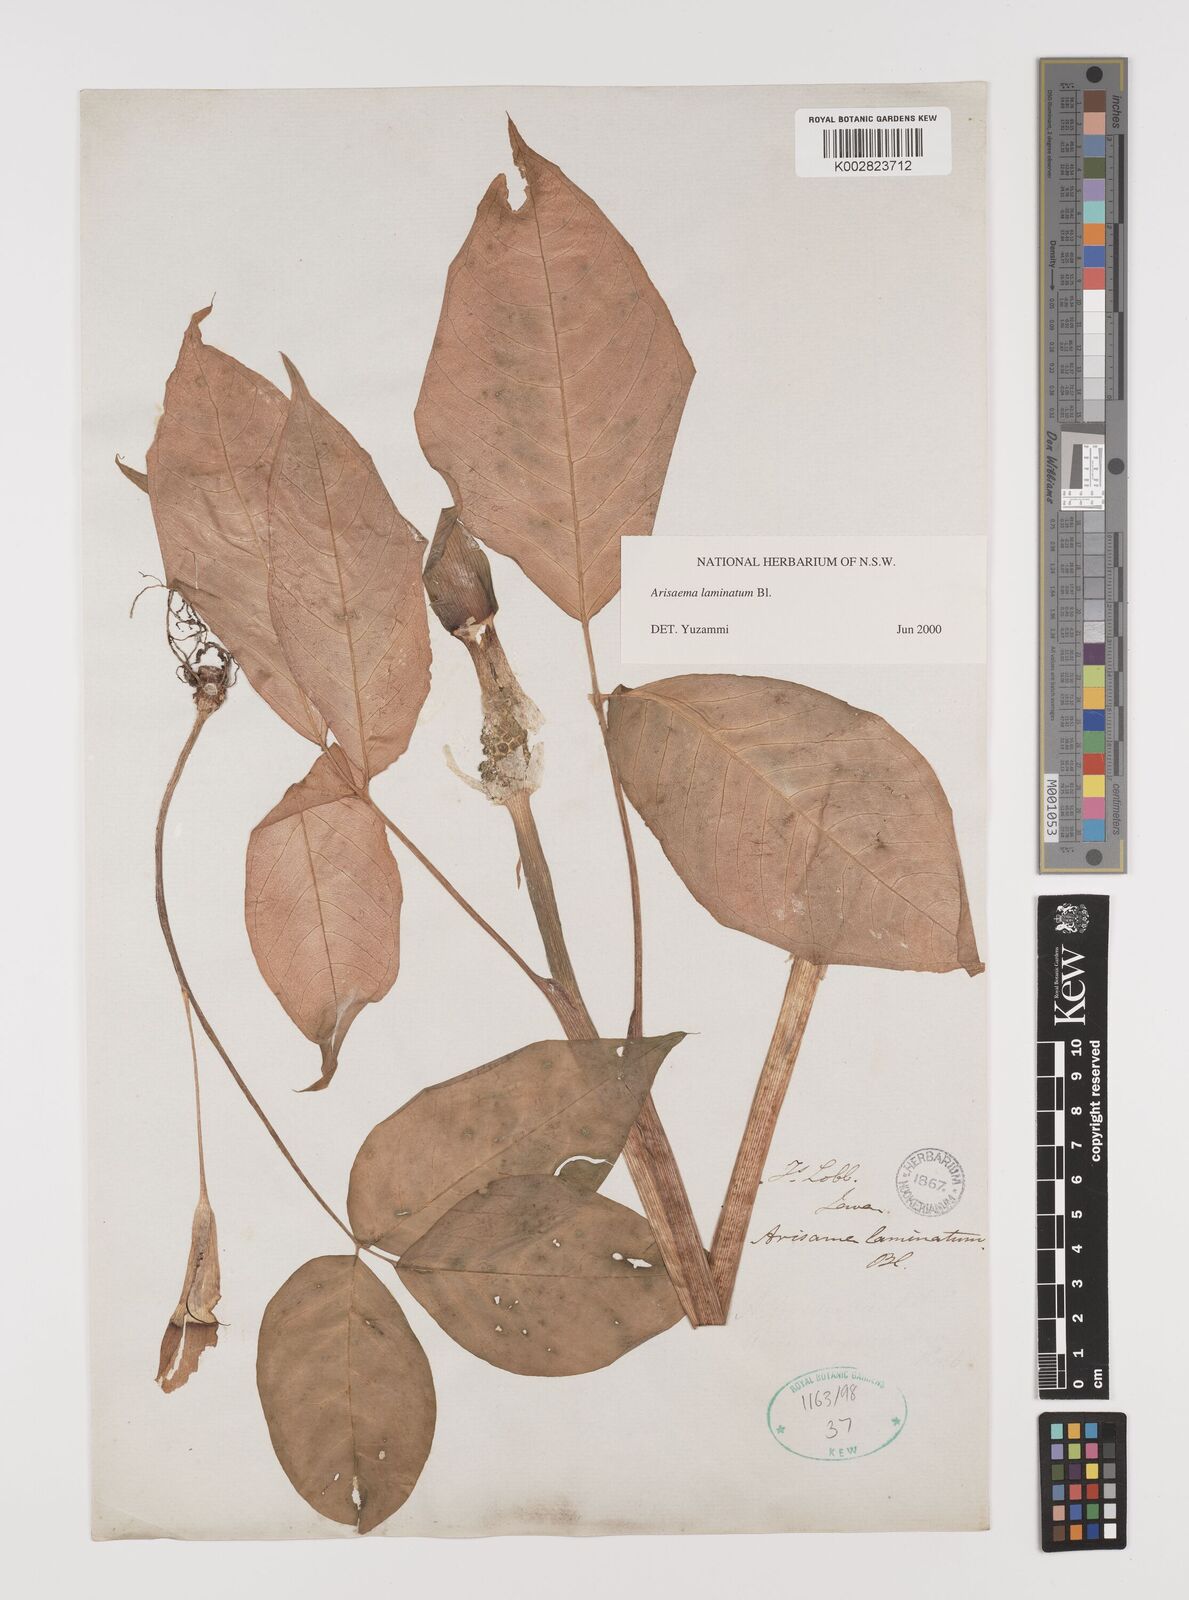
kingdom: Plantae
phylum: Tracheophyta
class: Liliopsida
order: Alismatales
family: Araceae
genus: Arisaema
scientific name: Arisaema laminatum
